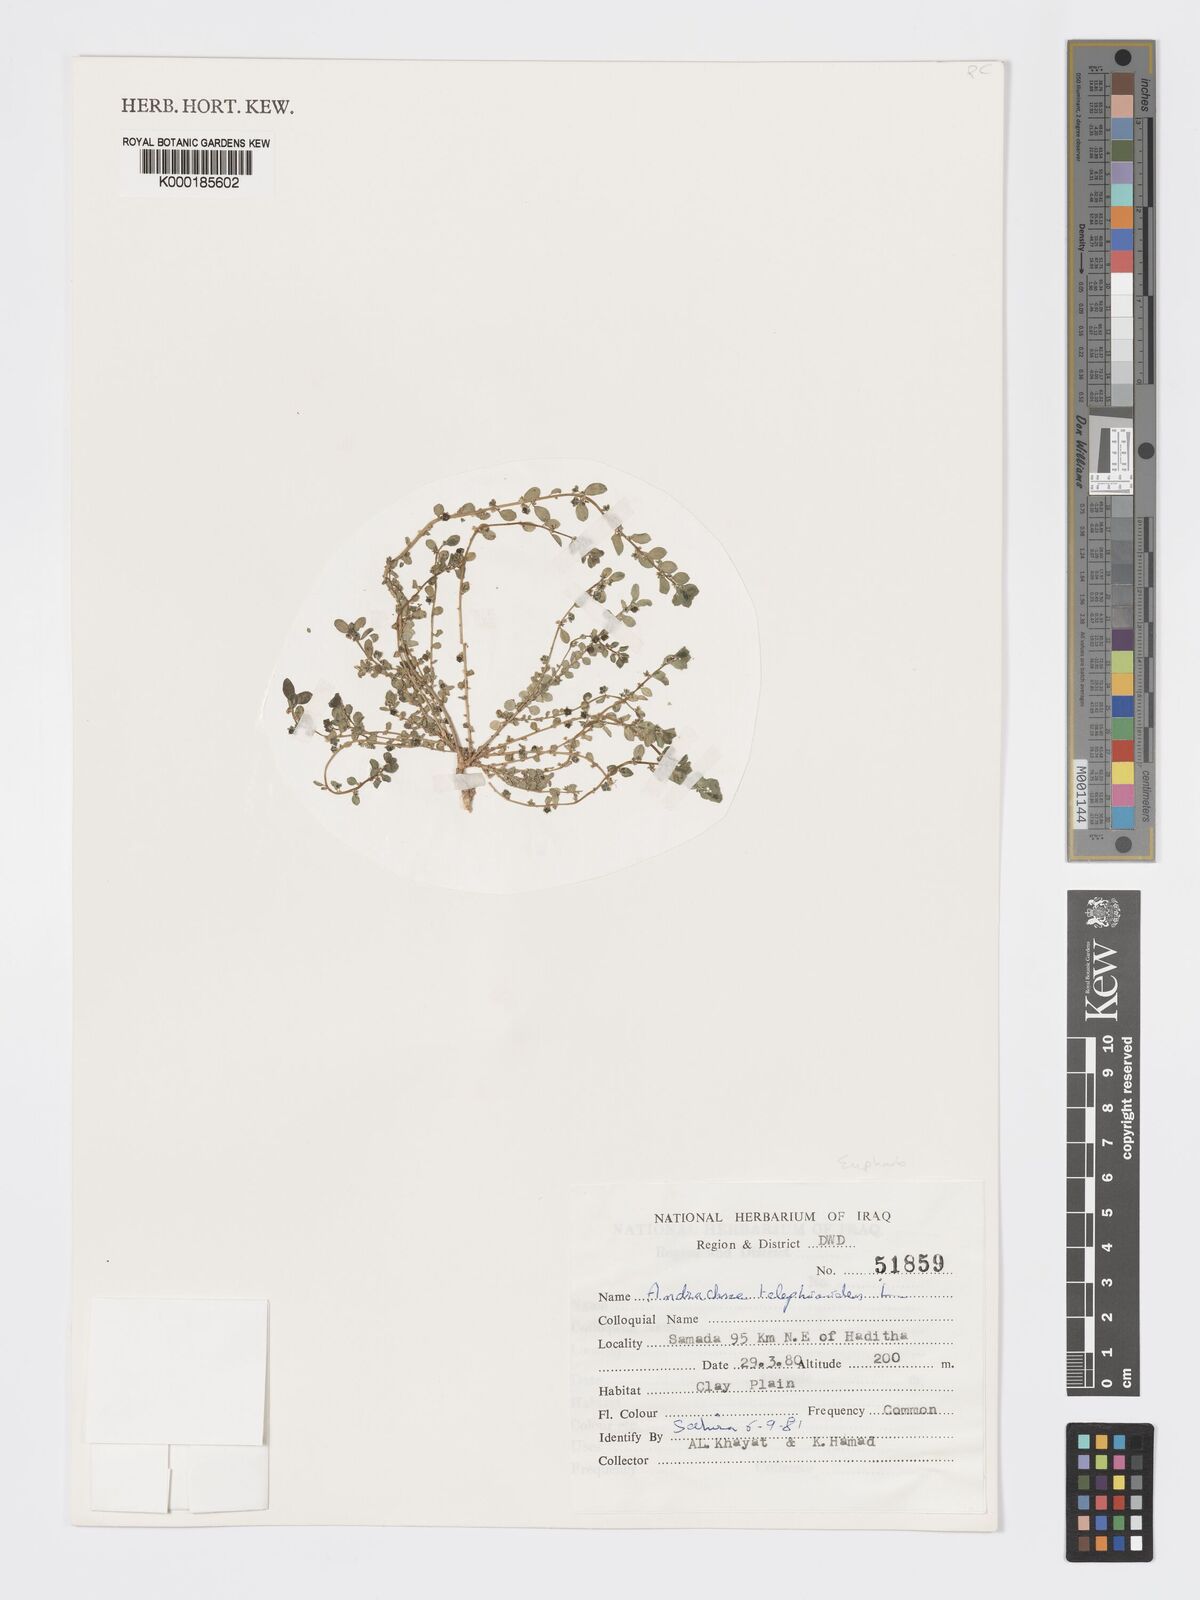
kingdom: Plantae
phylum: Tracheophyta
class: Magnoliopsida
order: Malpighiales
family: Phyllanthaceae
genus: Andrachne
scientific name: Andrachne telephioides
